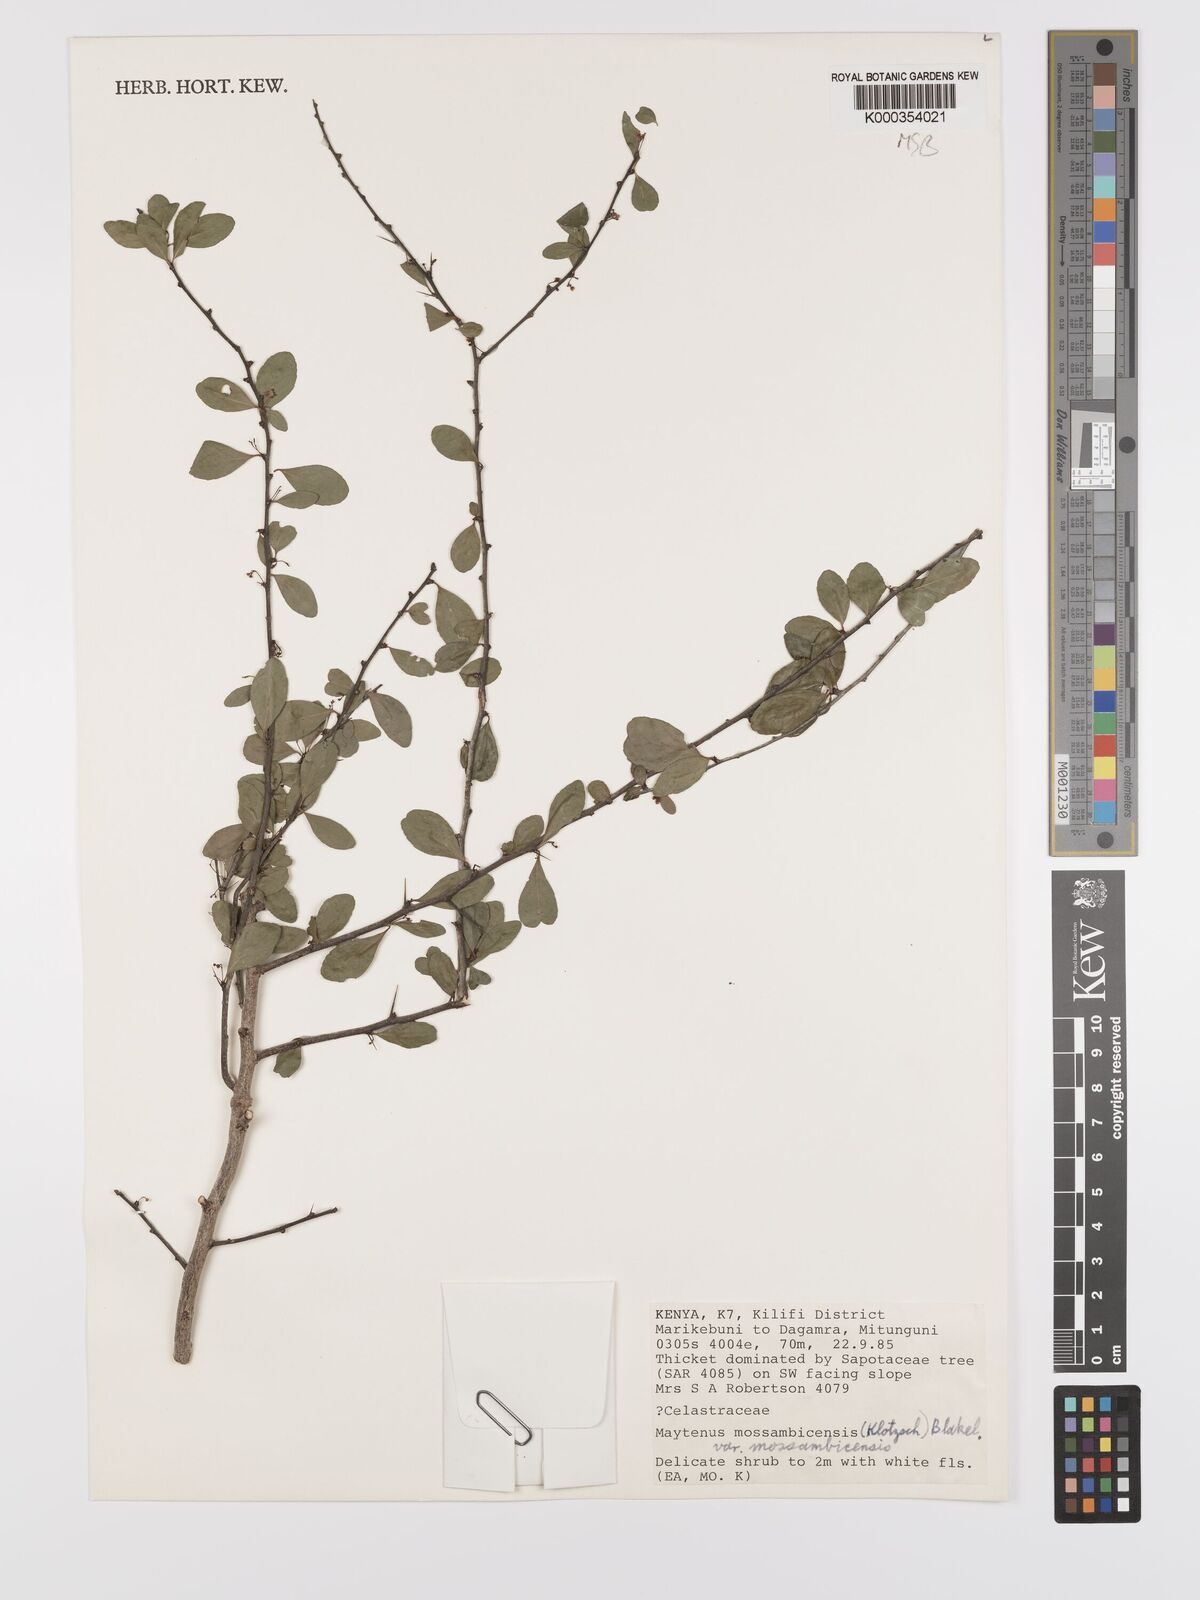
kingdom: Plantae
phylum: Tracheophyta
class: Magnoliopsida
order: Celastrales
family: Celastraceae
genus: Gymnosporia
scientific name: Gymnosporia
